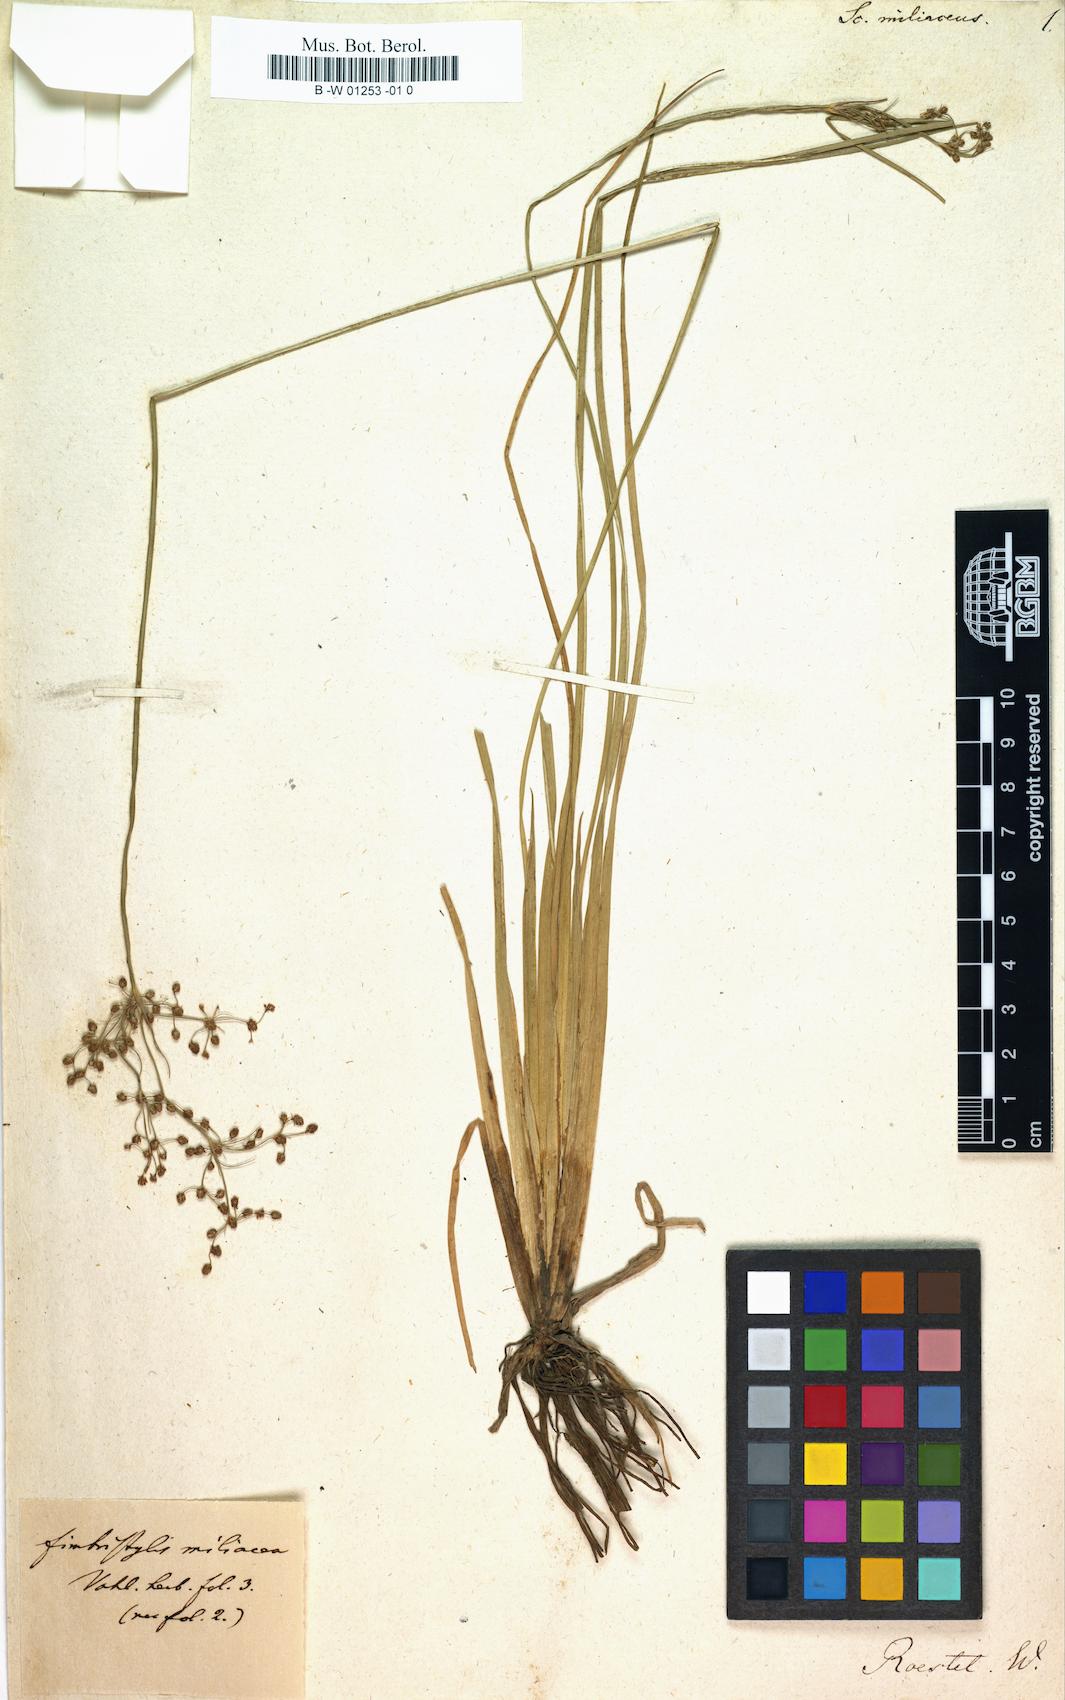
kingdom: Plantae
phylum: Tracheophyta
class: Liliopsida
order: Poales
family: Cyperaceae
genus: Fimbristylis
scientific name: Fimbristylis
